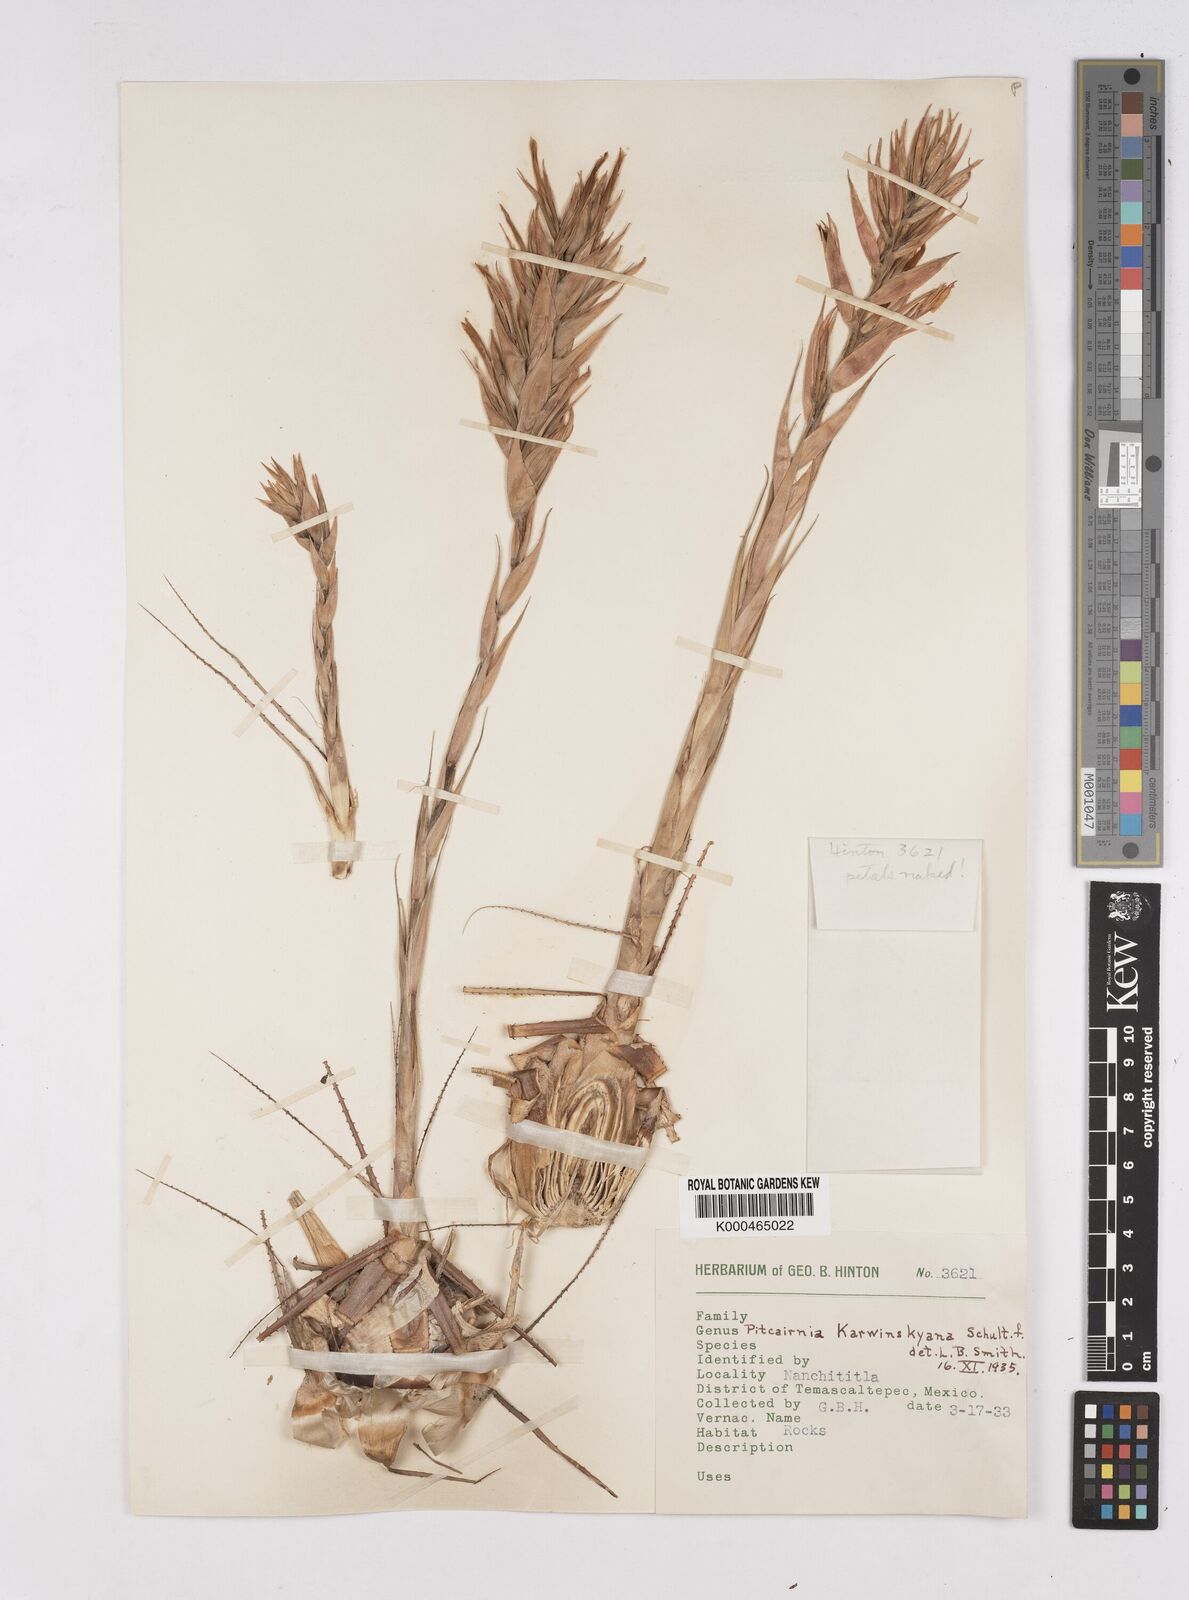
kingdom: Plantae
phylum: Tracheophyta
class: Liliopsida
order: Poales
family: Bromeliaceae
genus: Pitcairnia
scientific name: Pitcairnia karwinskyana
